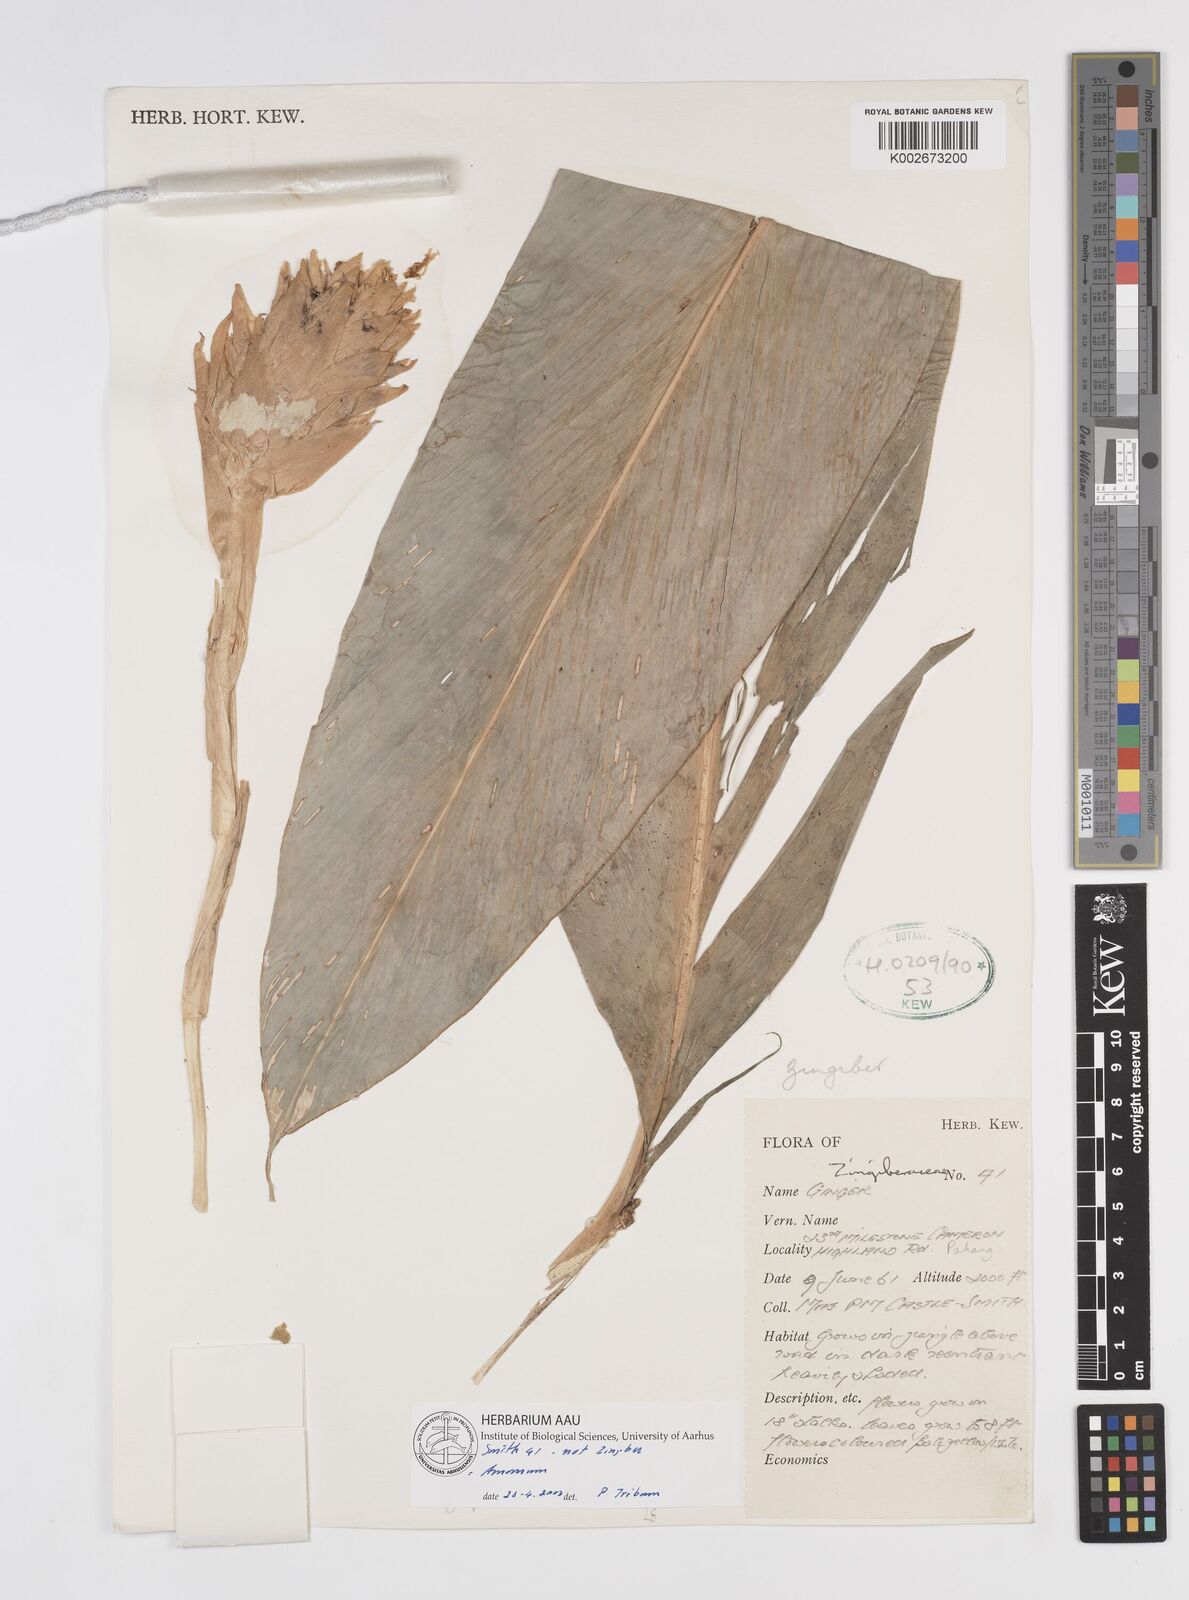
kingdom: Plantae
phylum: Tracheophyta
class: Liliopsida
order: Zingiberales
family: Zingiberaceae
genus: Amomum
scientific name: Amomum
